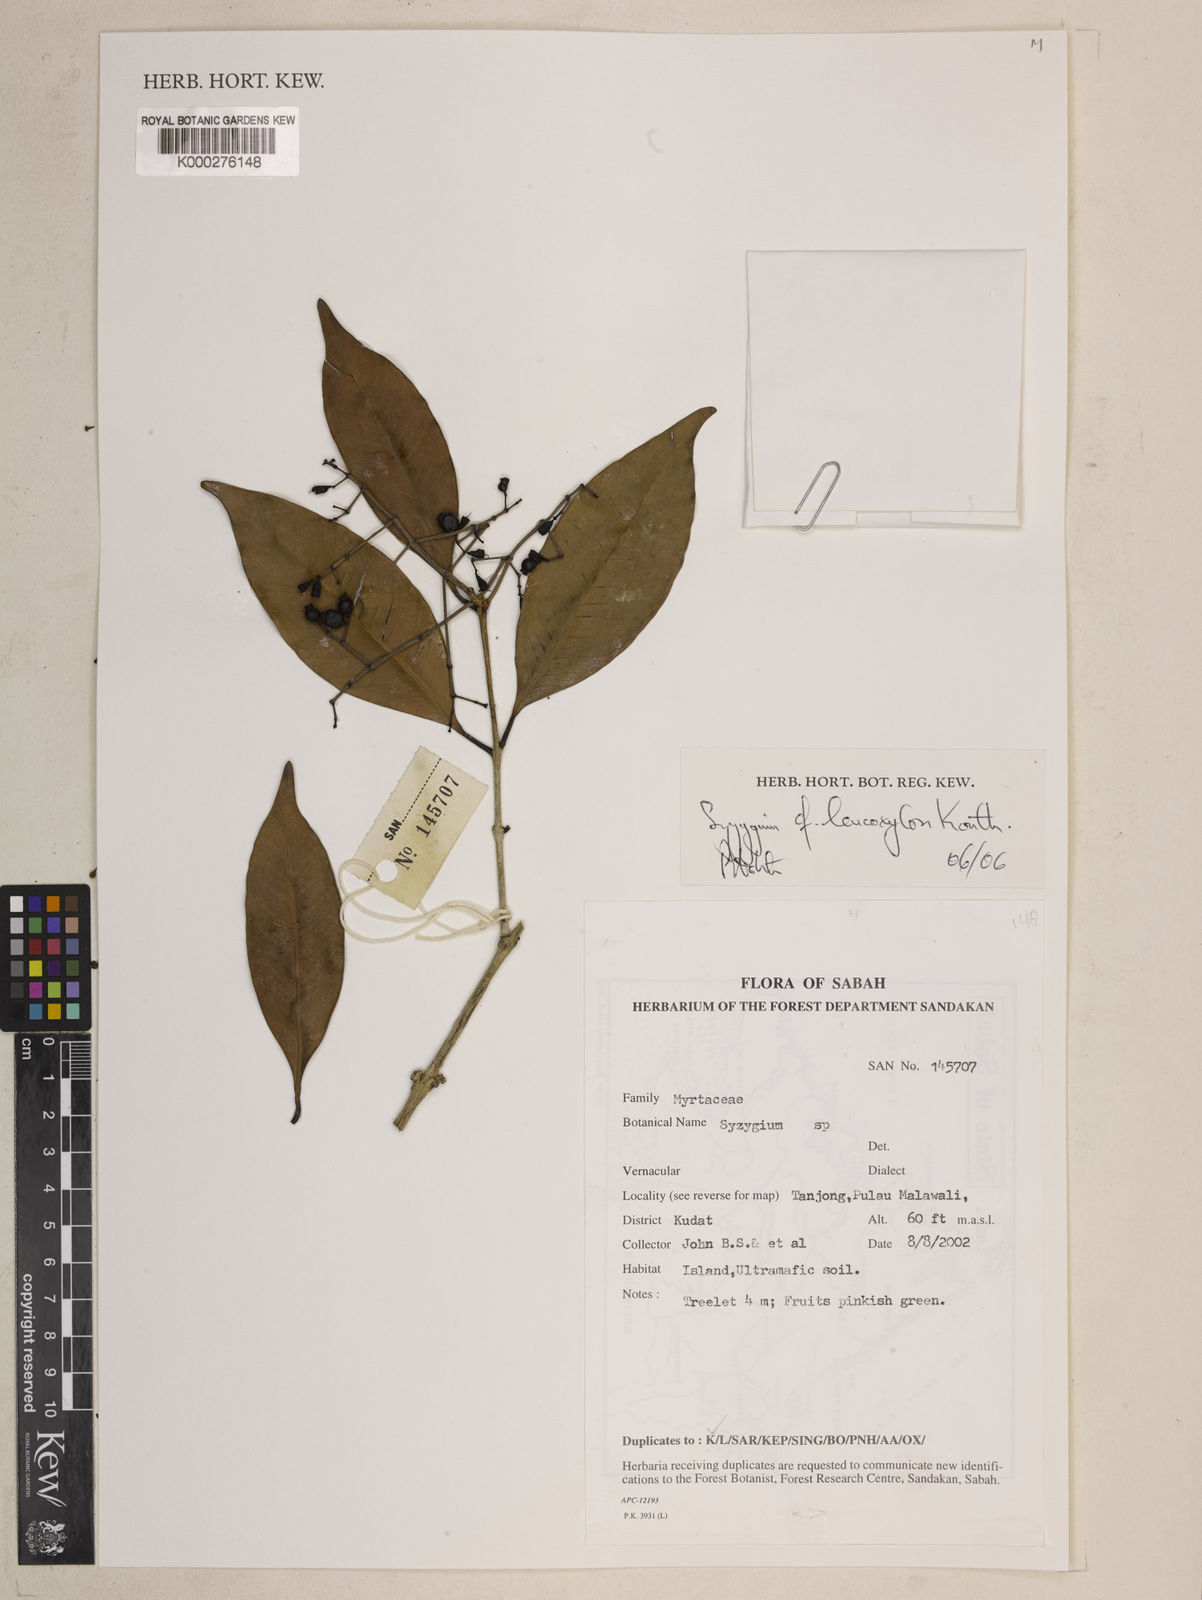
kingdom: Plantae
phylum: Tracheophyta
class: Magnoliopsida
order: Myrtales
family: Myrtaceae
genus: Syzygium
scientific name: Syzygium leucoxylon
